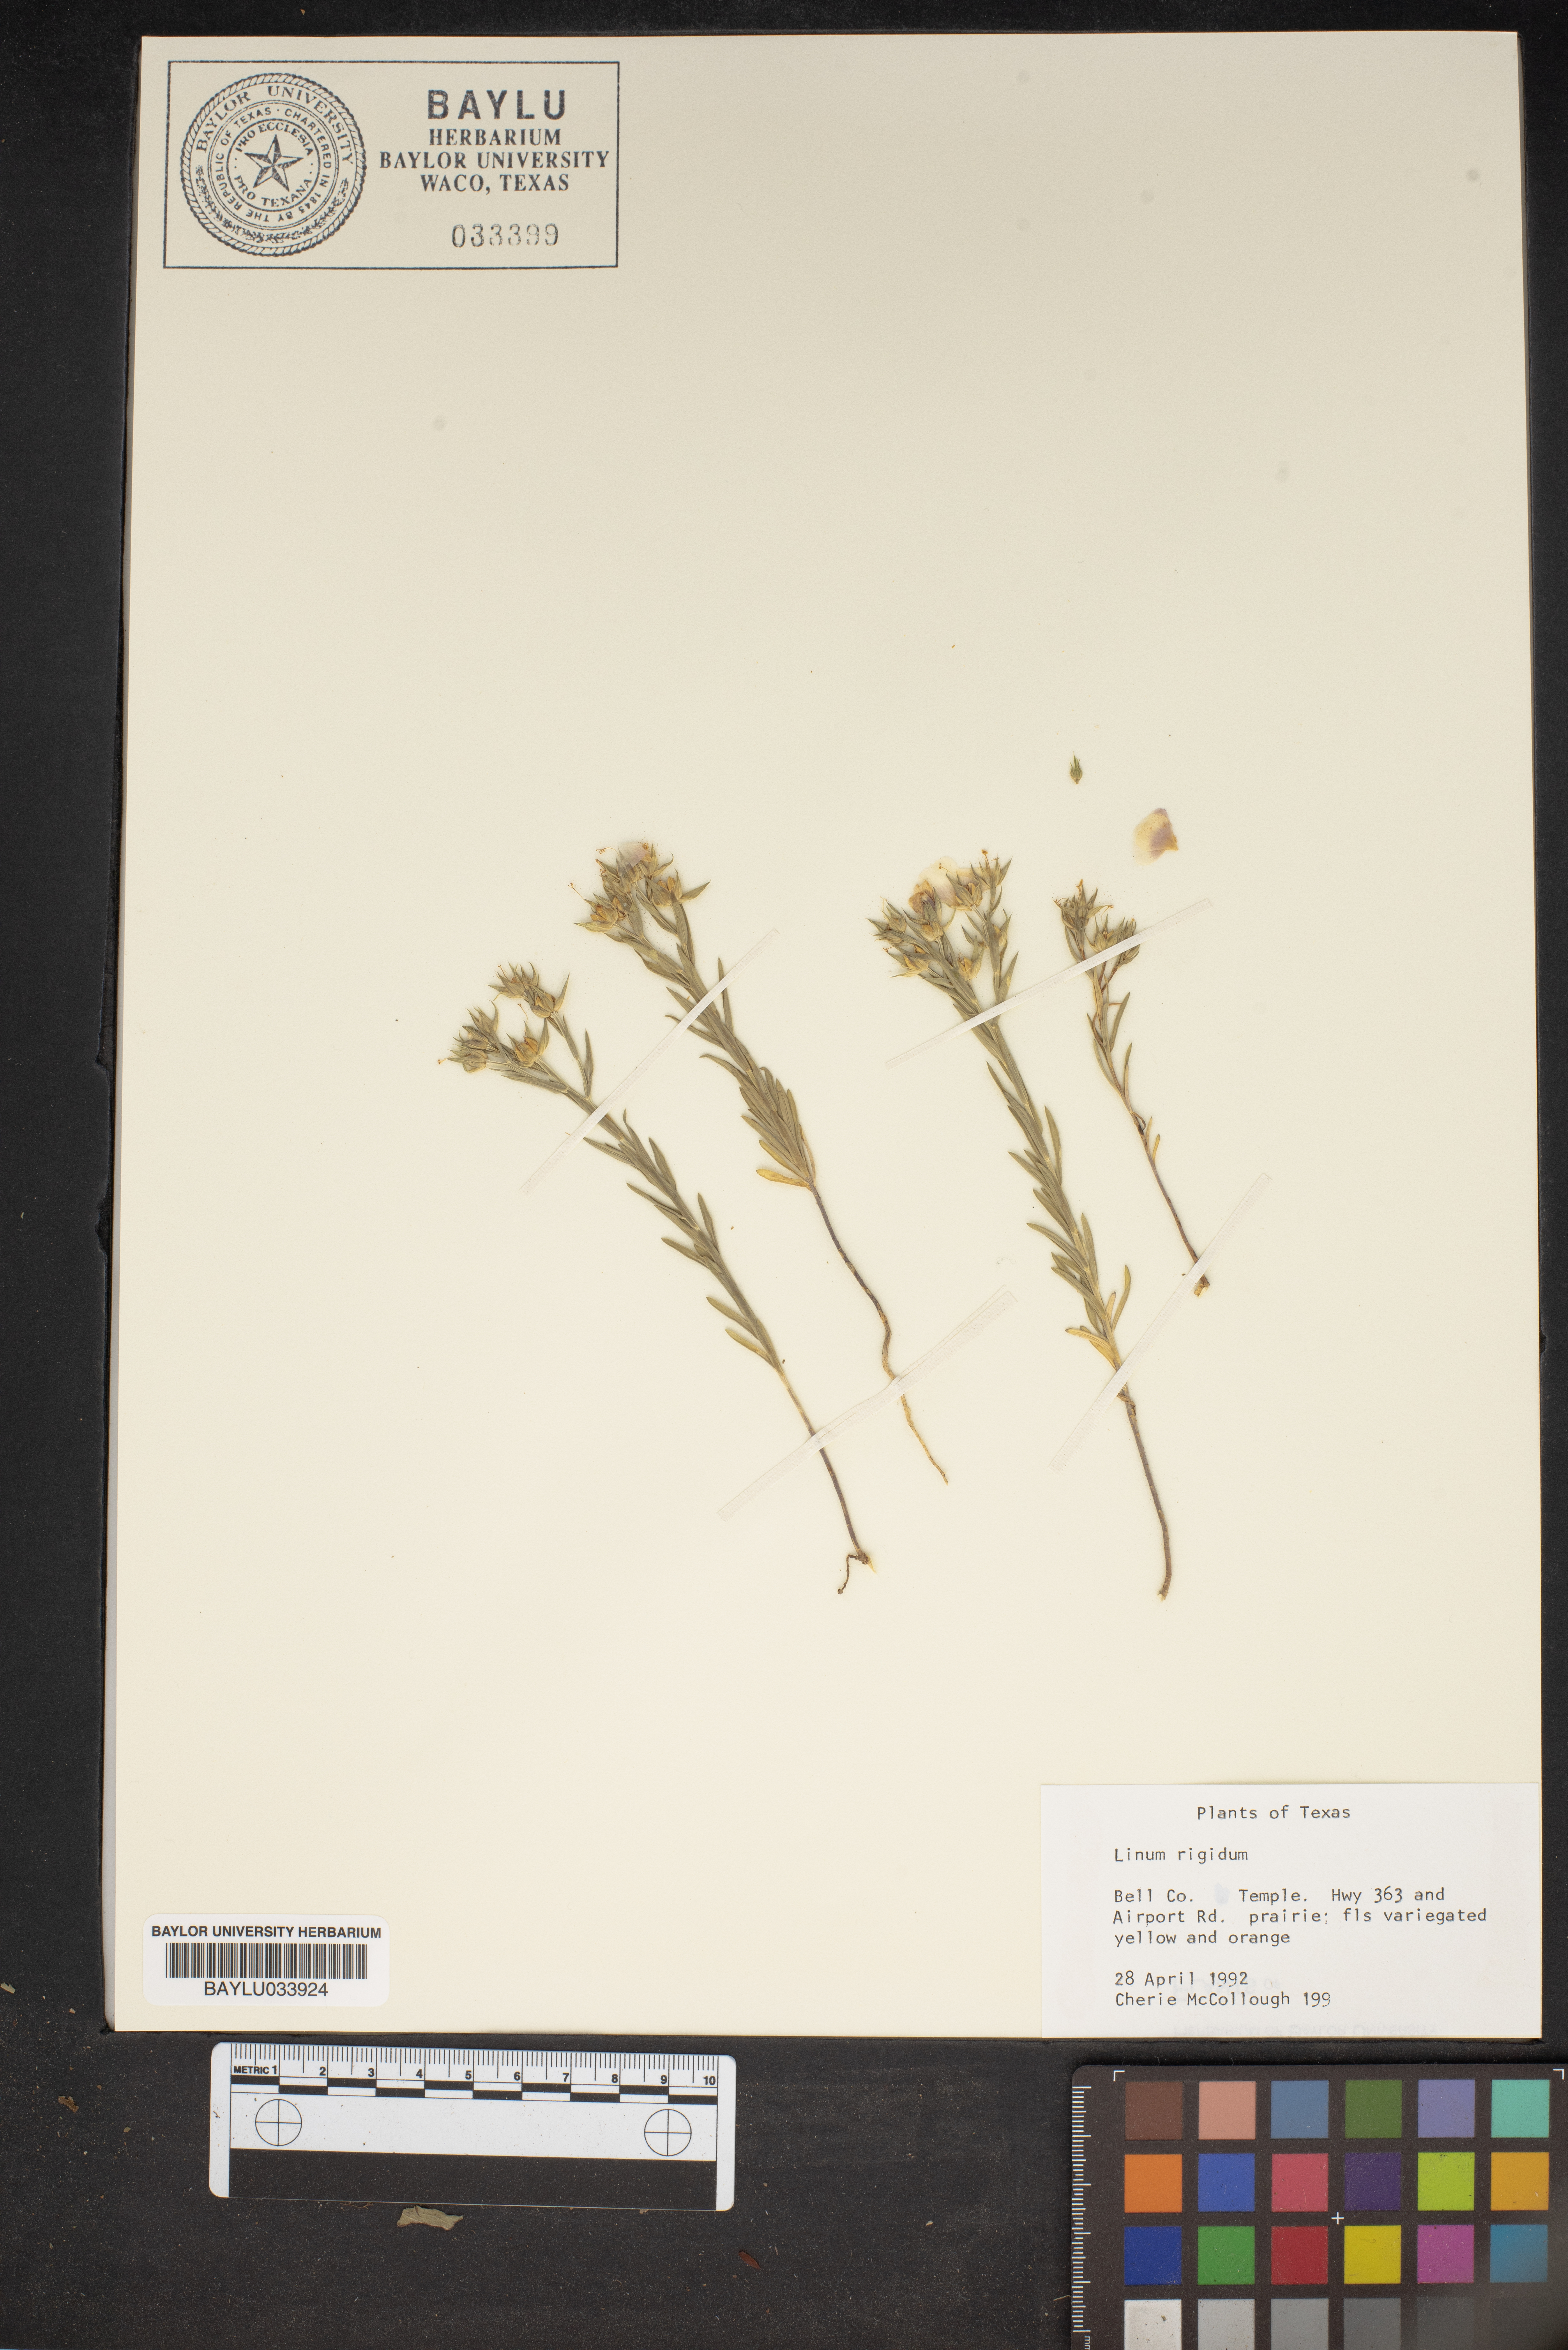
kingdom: Plantae
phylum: Tracheophyta
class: Magnoliopsida
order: Malpighiales
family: Linaceae
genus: Linum
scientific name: Linum rigidum
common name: Stiff-stem flax
